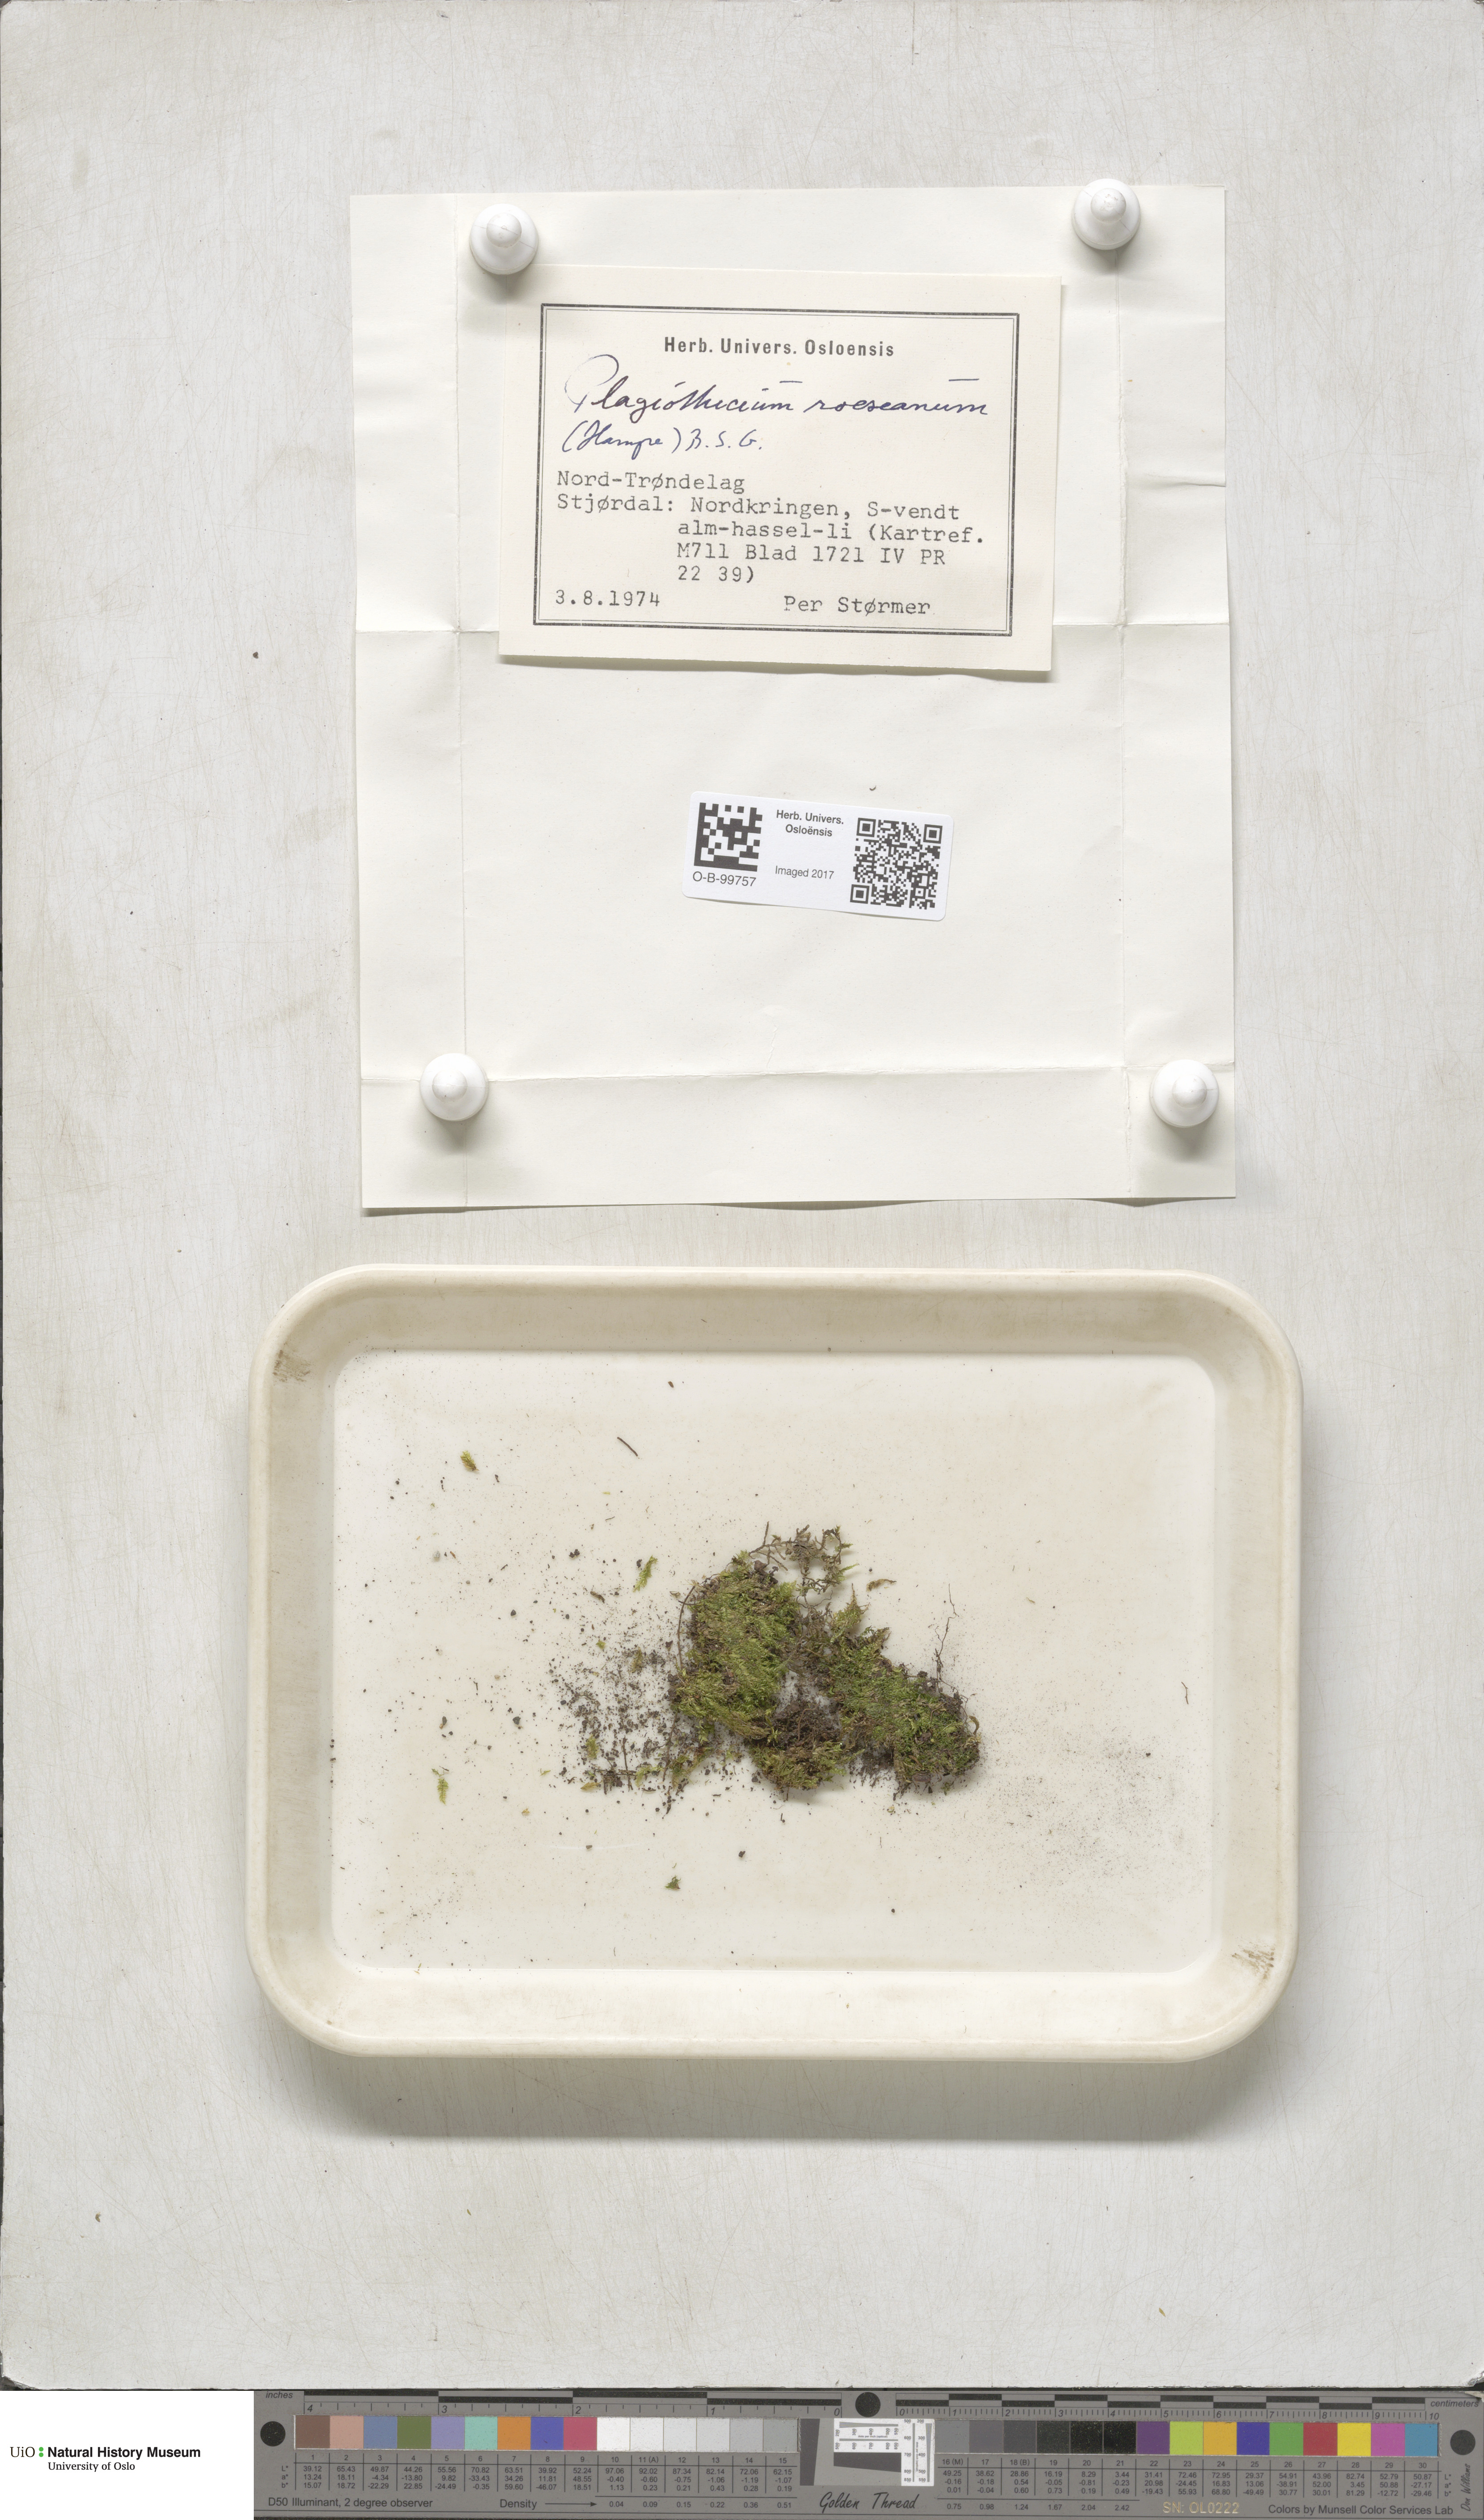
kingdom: Plantae
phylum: Bryophyta
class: Bryopsida
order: Bartramiales
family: Bartramiaceae
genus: Plagiopus
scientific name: Plagiopus oederianus
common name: Oeder's apple moss
